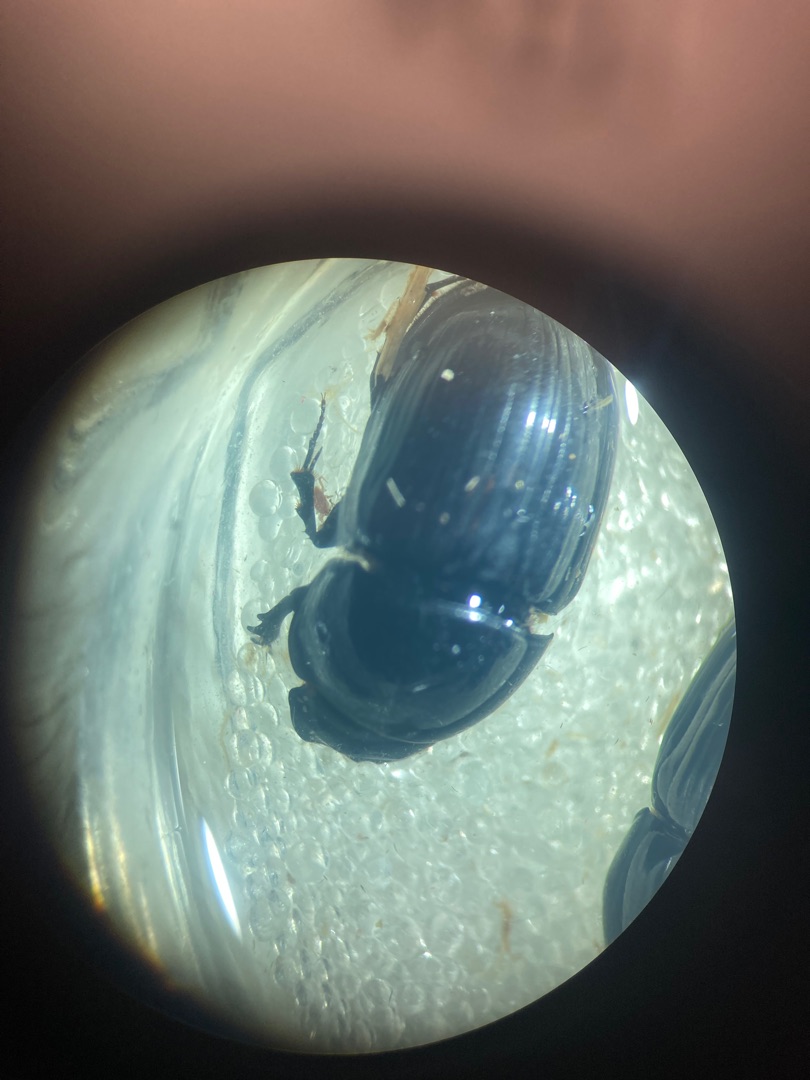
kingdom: Animalia
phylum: Arthropoda
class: Insecta
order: Coleoptera
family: Scarabaeidae
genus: Teuchestes
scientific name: Teuchestes fossor
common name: Stor møgbille
